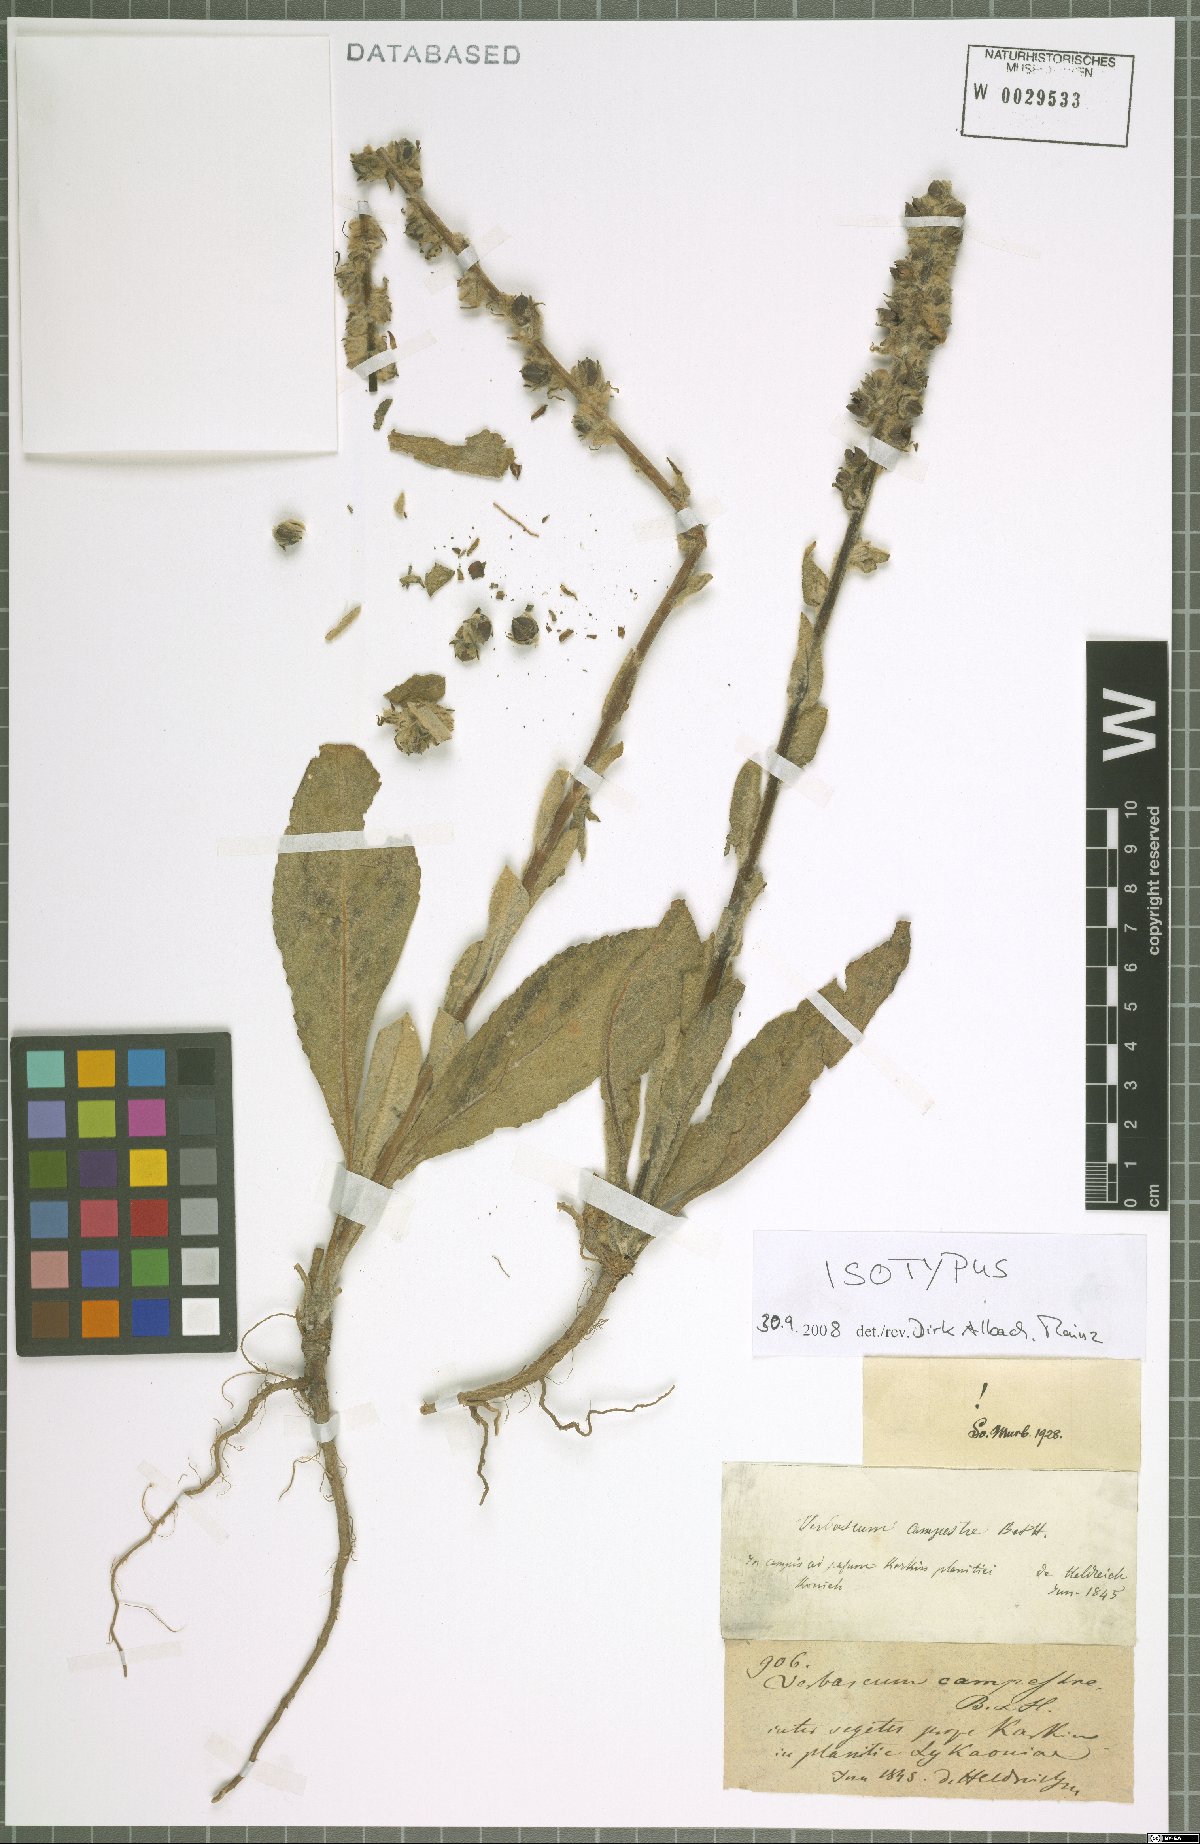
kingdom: Plantae
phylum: Tracheophyta
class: Magnoliopsida
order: Lamiales
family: Scrophulariaceae
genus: Verbascum
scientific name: Verbascum campestre
